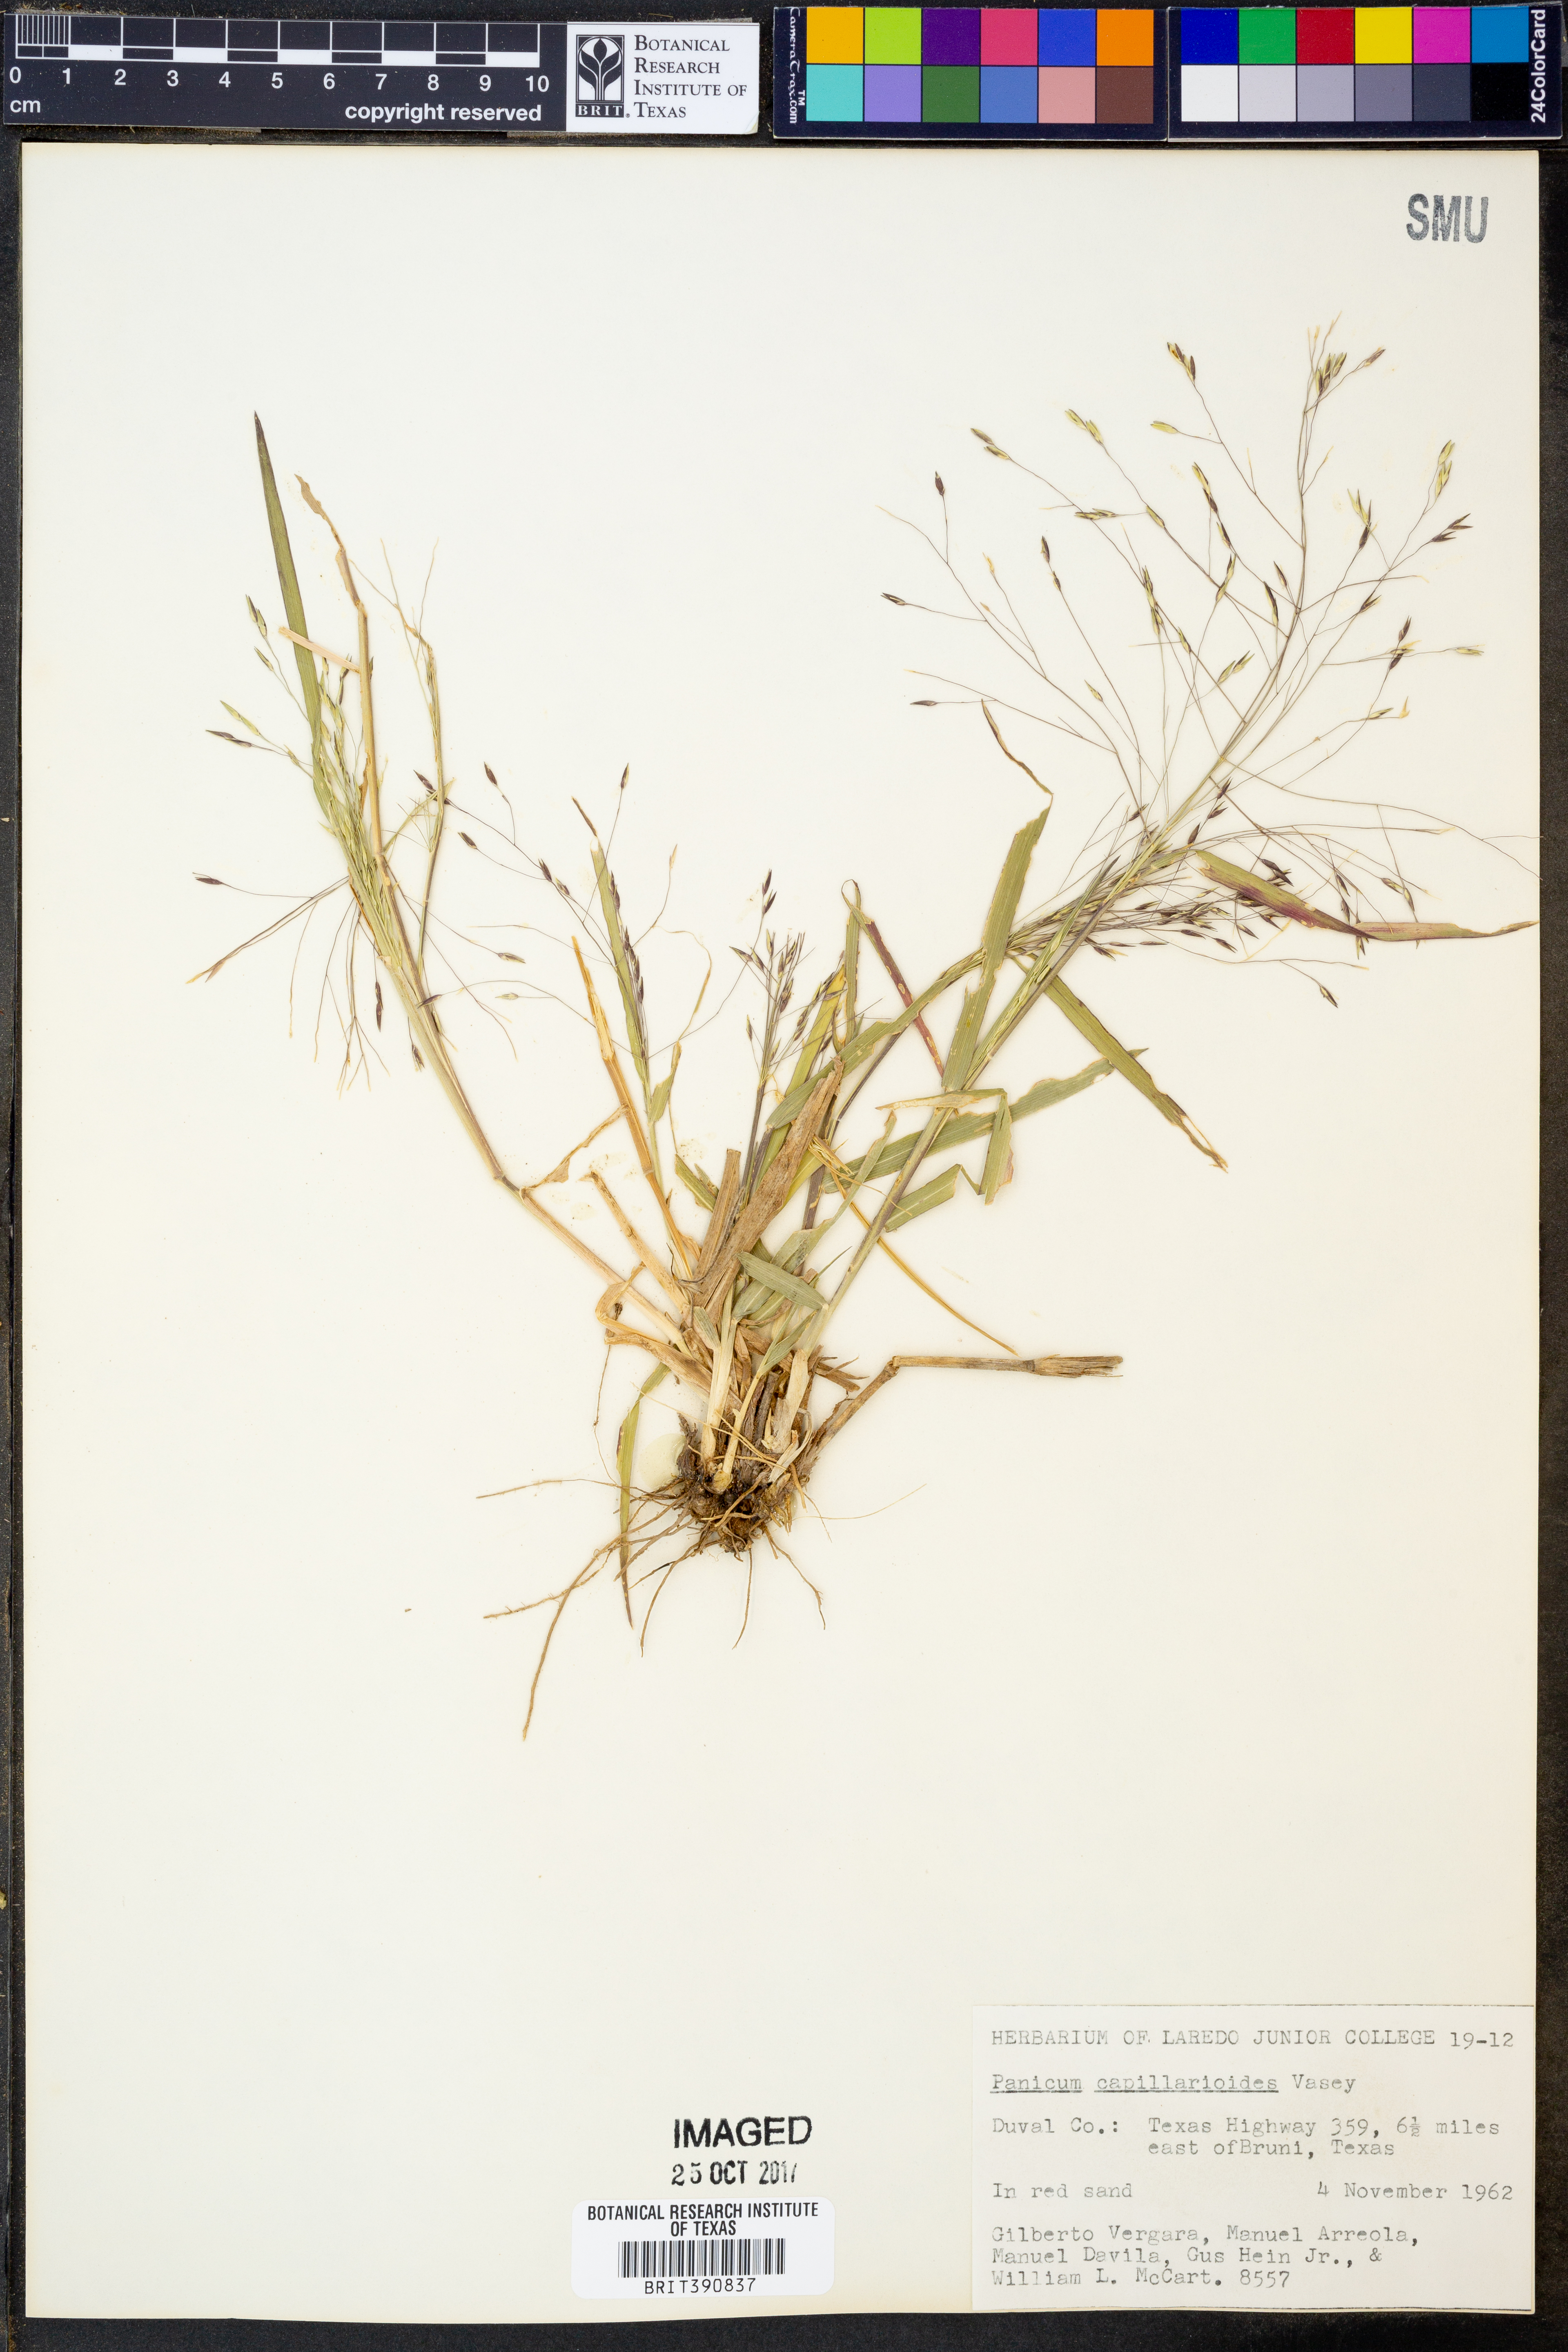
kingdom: Plantae
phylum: Tracheophyta
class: Liliopsida
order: Poales
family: Poaceae
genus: Panicum
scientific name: Panicum capillarioides
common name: Long-beak witchgrass
